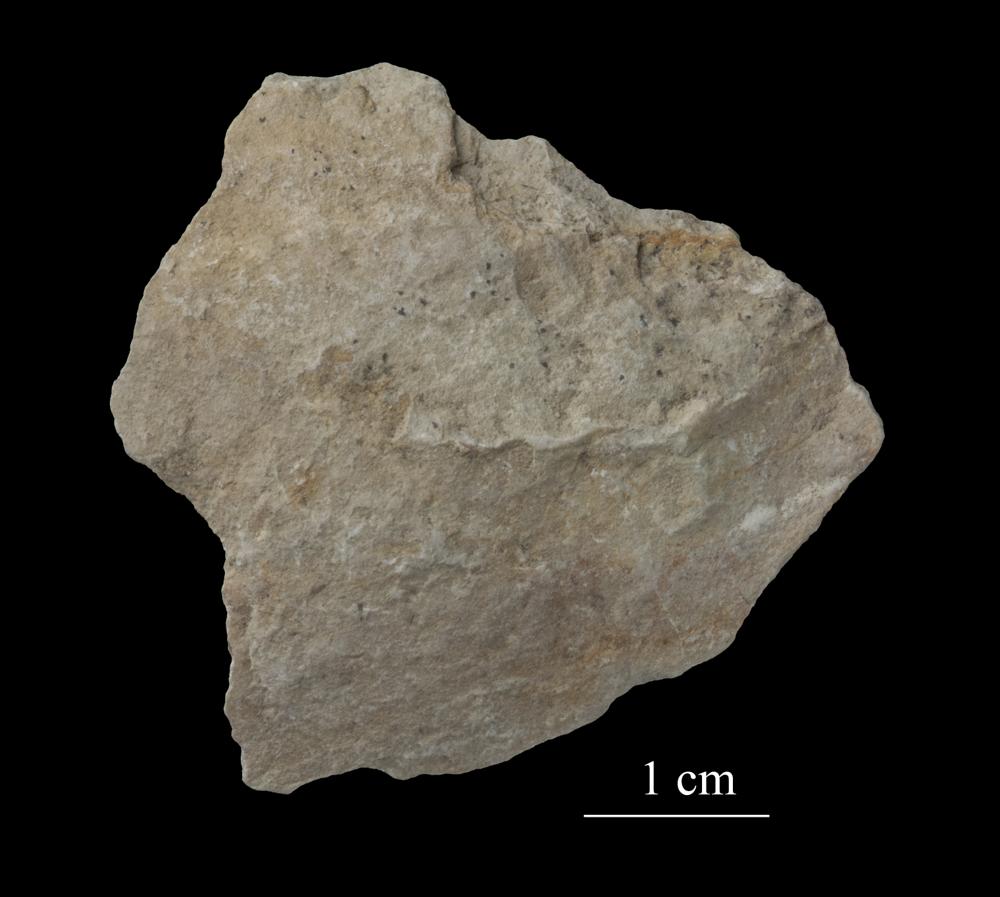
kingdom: Animalia
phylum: Mollusca
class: Gastropoda
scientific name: Gastropoda
